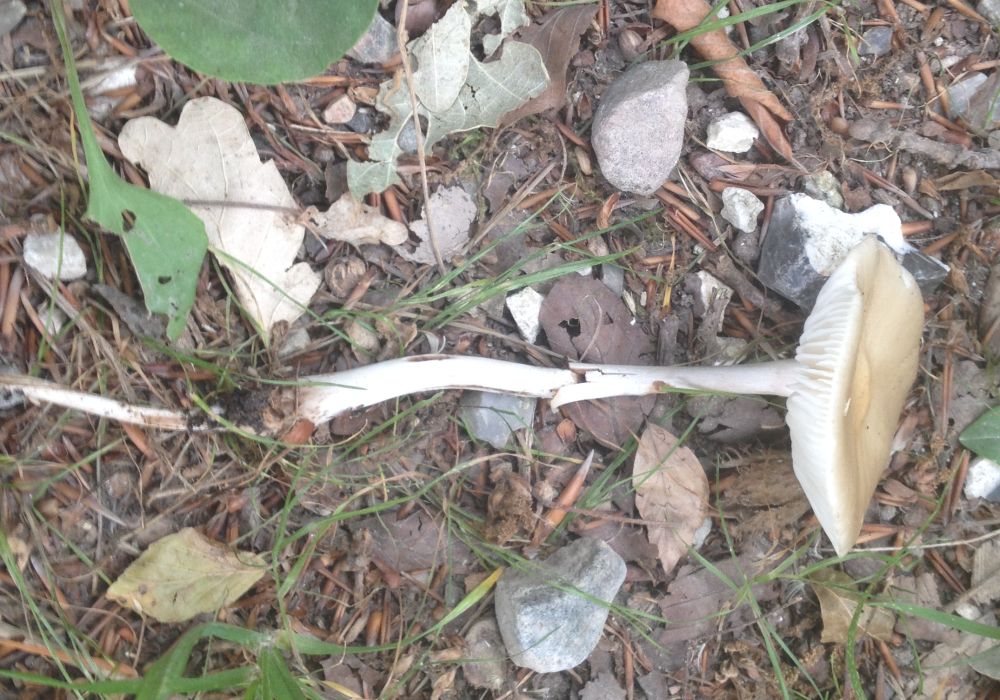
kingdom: Fungi
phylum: Basidiomycota
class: Agaricomycetes
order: Agaricales
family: Physalacriaceae
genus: Hymenopellis
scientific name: Hymenopellis radicata
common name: almindelig pælerodshat
